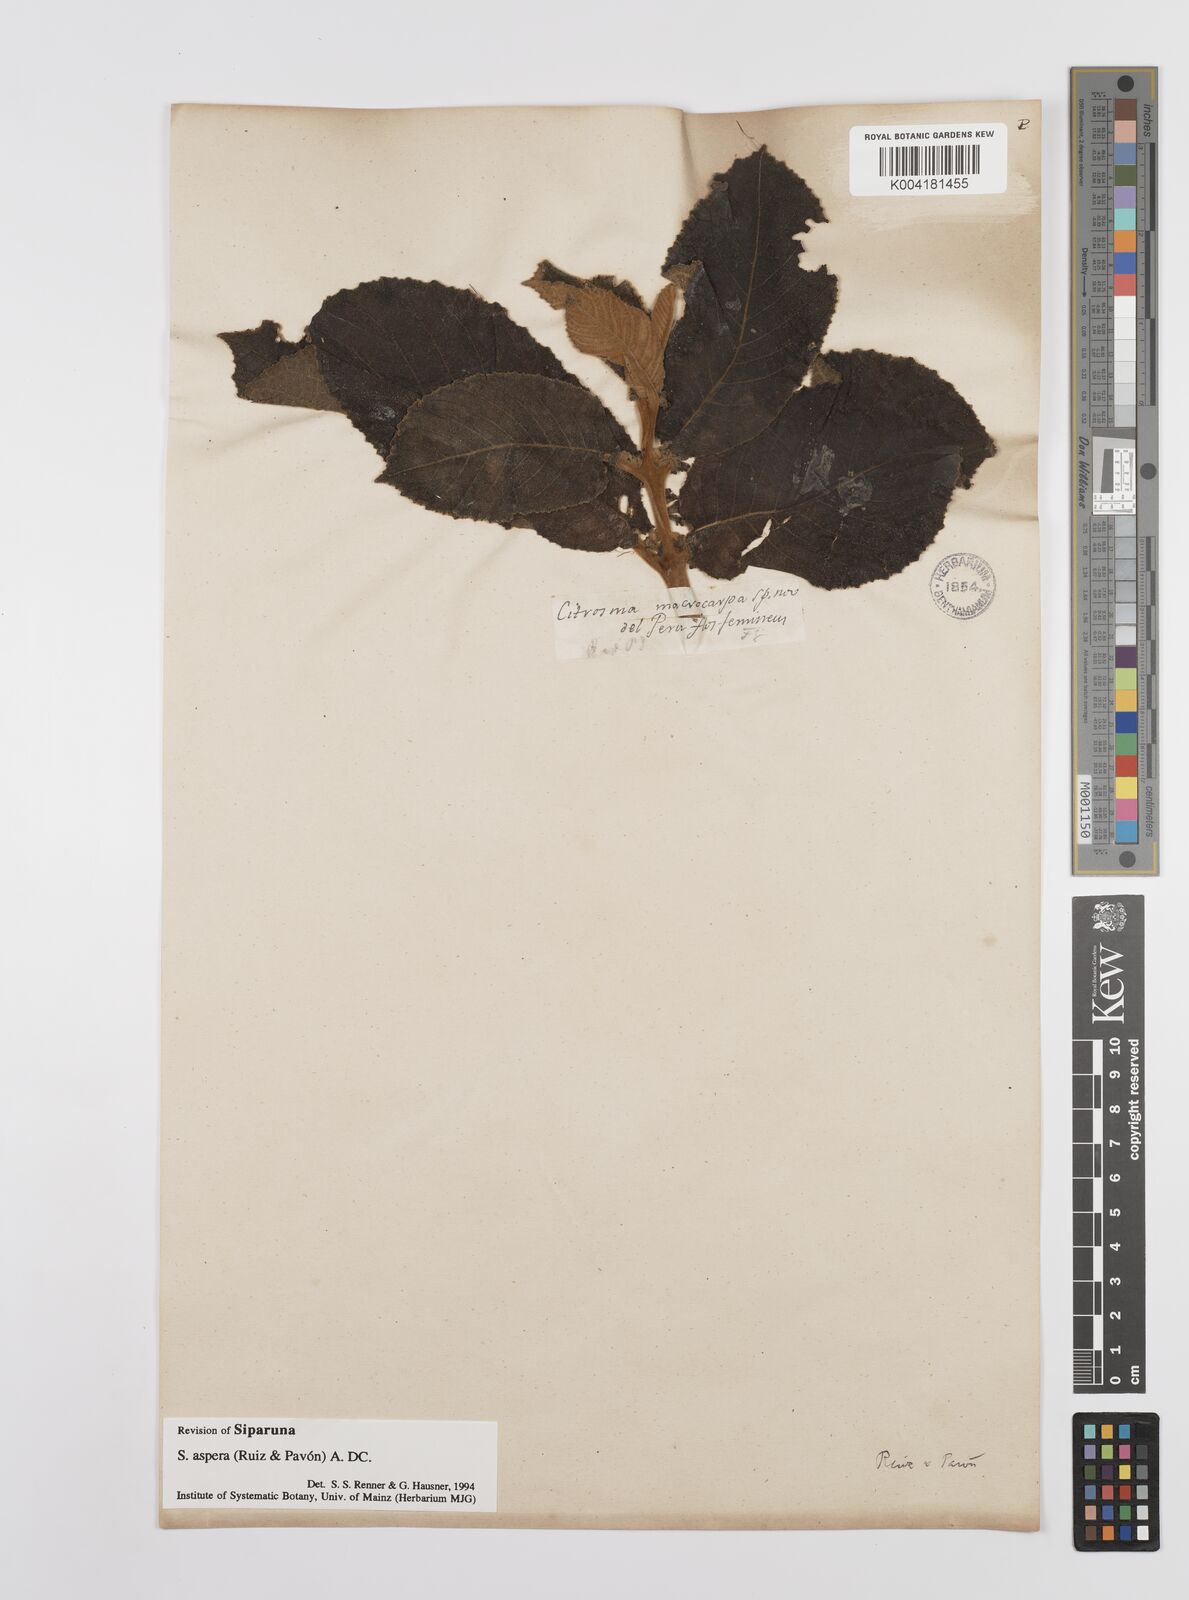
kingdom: Plantae
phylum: Tracheophyta
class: Magnoliopsida
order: Laurales
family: Siparunaceae
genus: Siparuna
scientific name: Siparuna aspera
